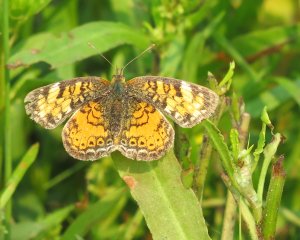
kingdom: Animalia
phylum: Arthropoda
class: Insecta
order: Lepidoptera
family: Nymphalidae
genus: Phyciodes
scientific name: Phyciodes tharos
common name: Northern Crescent
